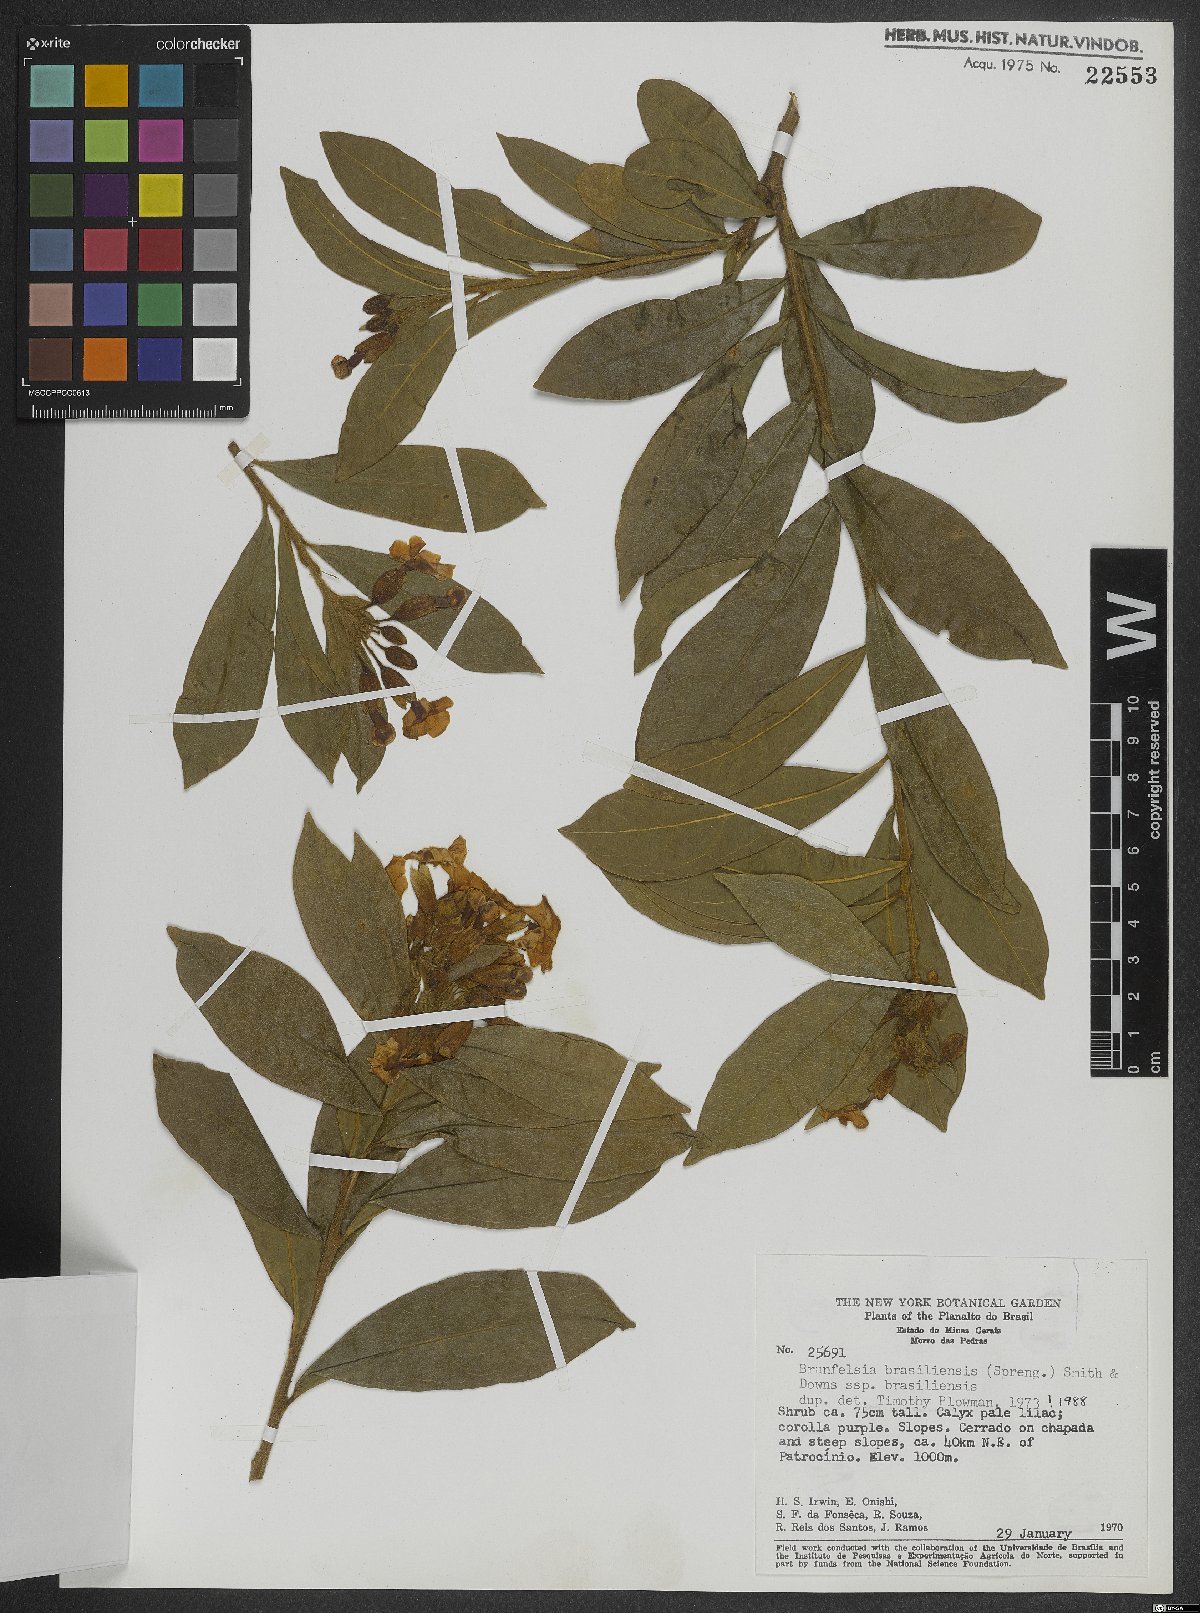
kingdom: Plantae
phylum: Tracheophyta
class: Magnoliopsida
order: Solanales
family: Solanaceae
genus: Brunfelsia
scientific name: Brunfelsia brasiliensis
